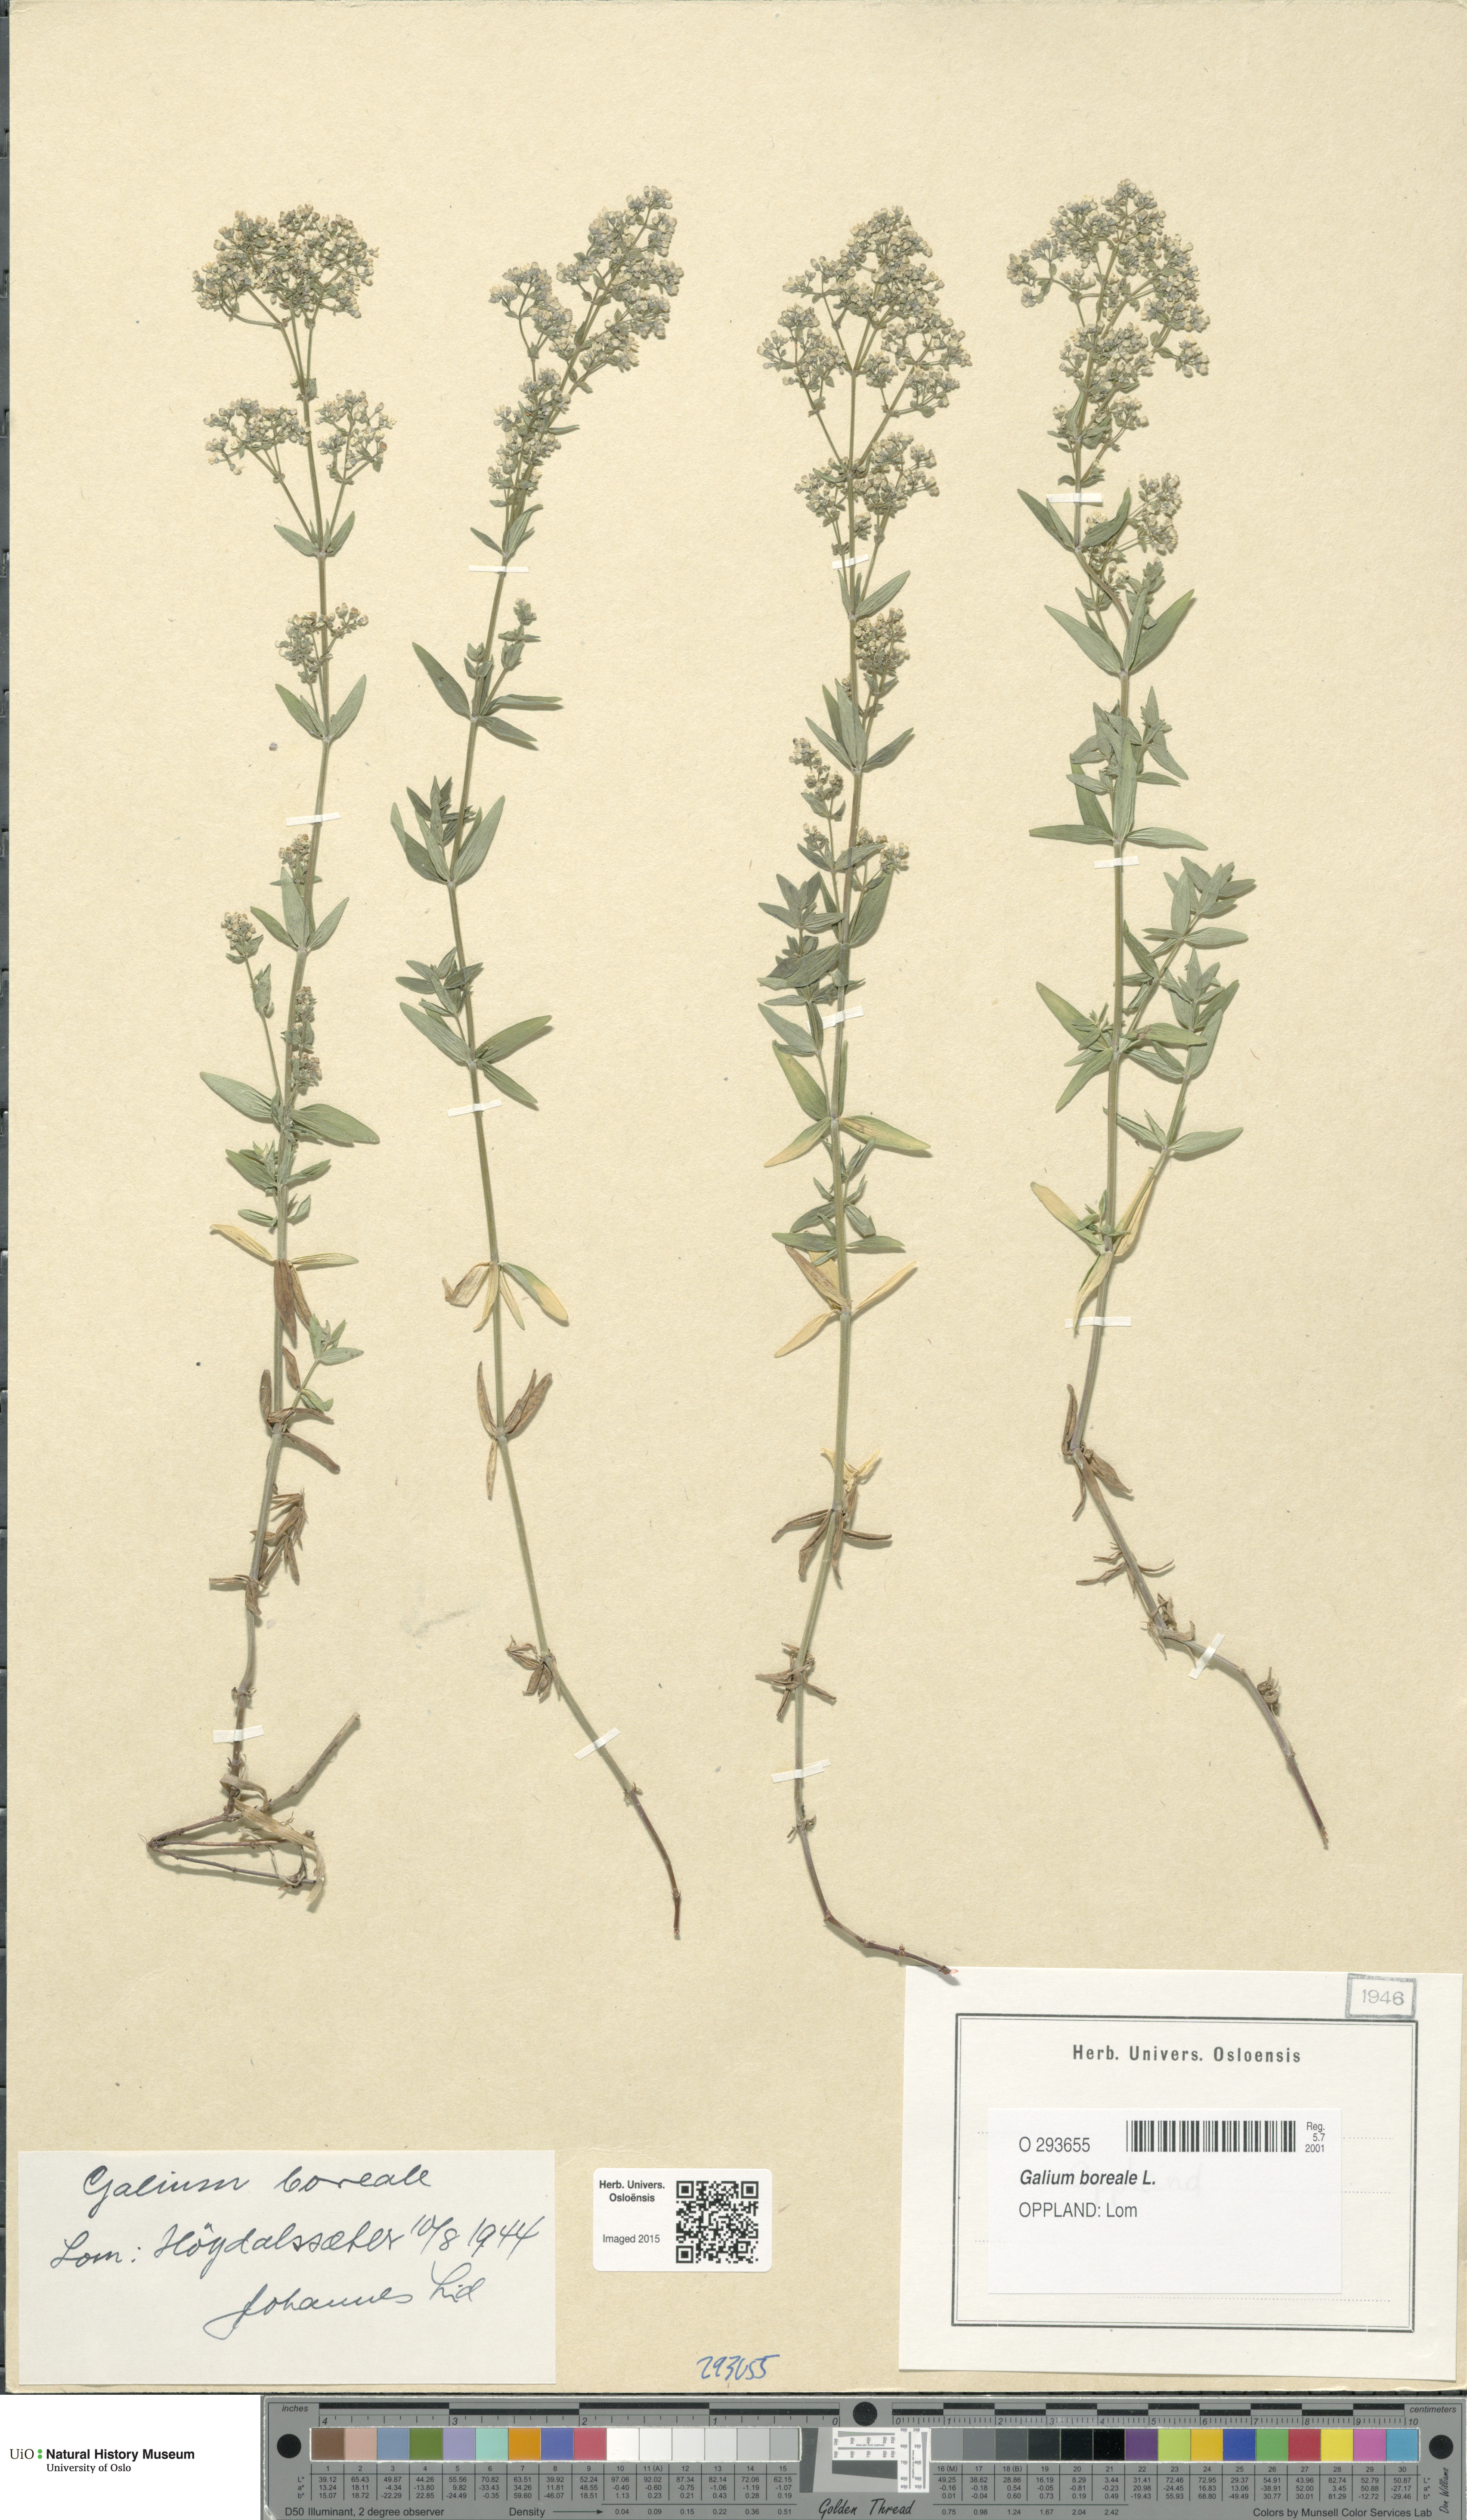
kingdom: Plantae
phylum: Tracheophyta
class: Magnoliopsida
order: Gentianales
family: Rubiaceae
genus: Galium
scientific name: Galium boreale
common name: Northern bedstraw
